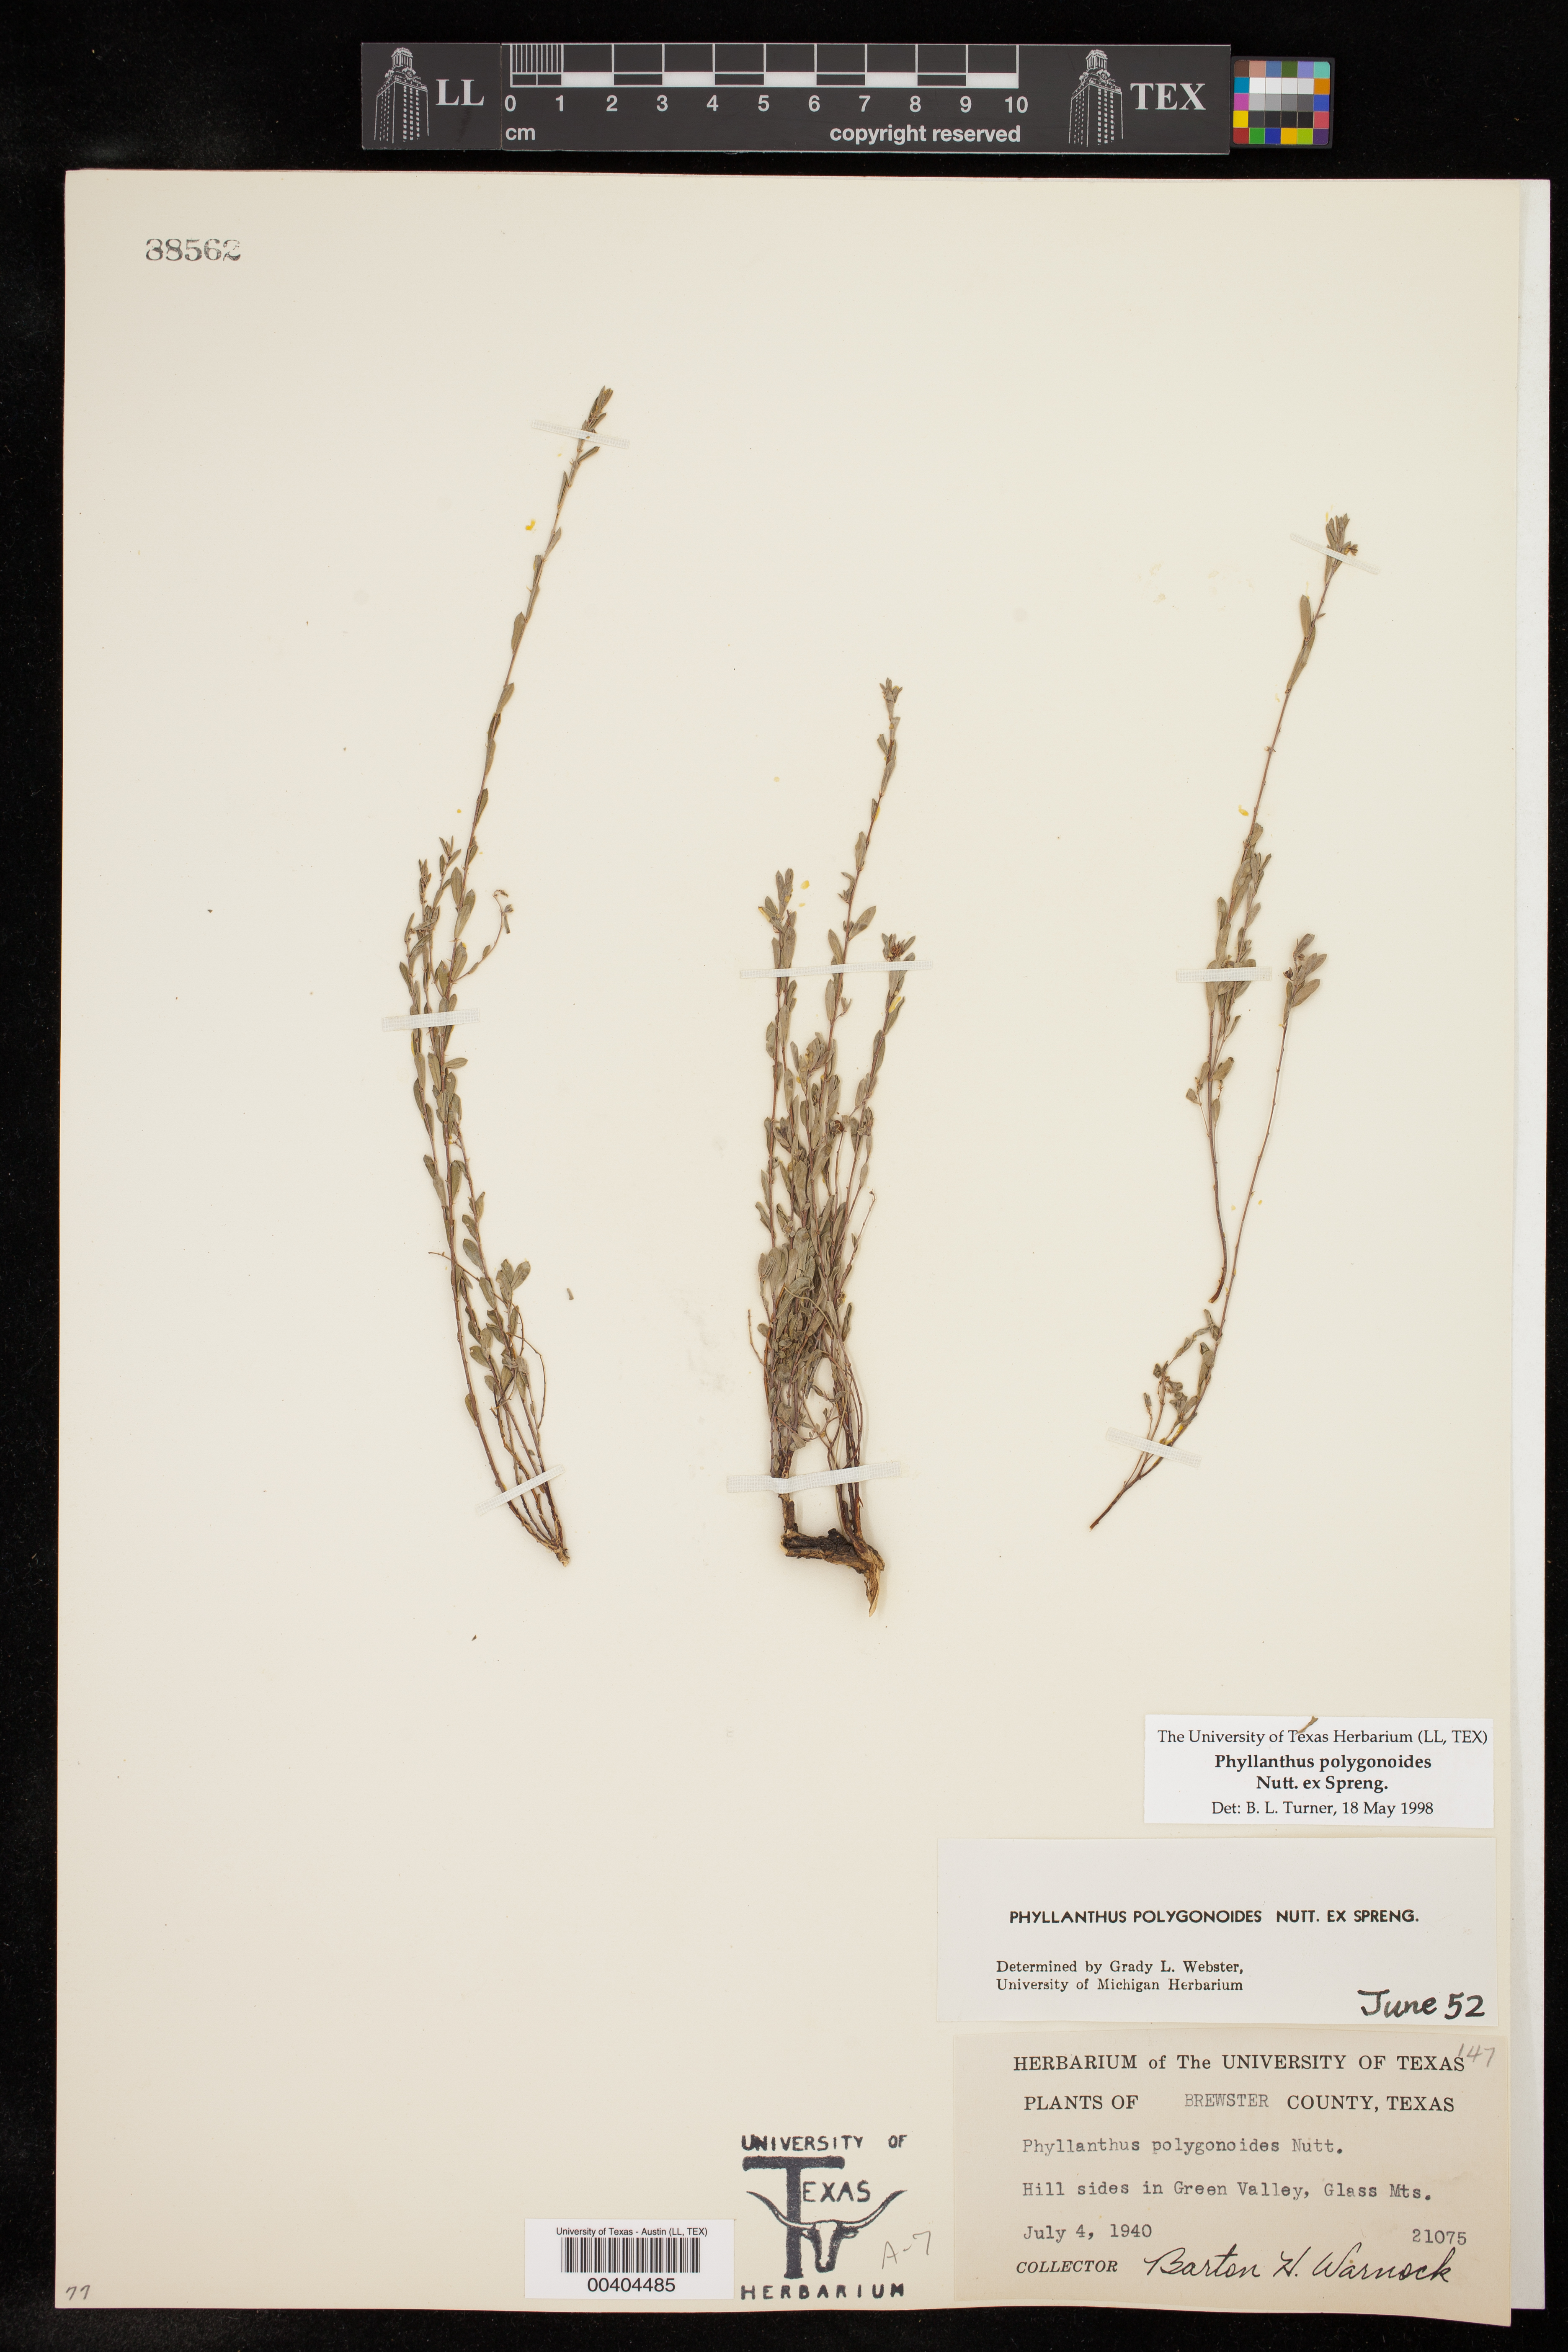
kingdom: Plantae
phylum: Tracheophyta
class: Magnoliopsida
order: Malpighiales
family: Phyllanthaceae
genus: Phyllanthus
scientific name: Phyllanthus polygonoides
